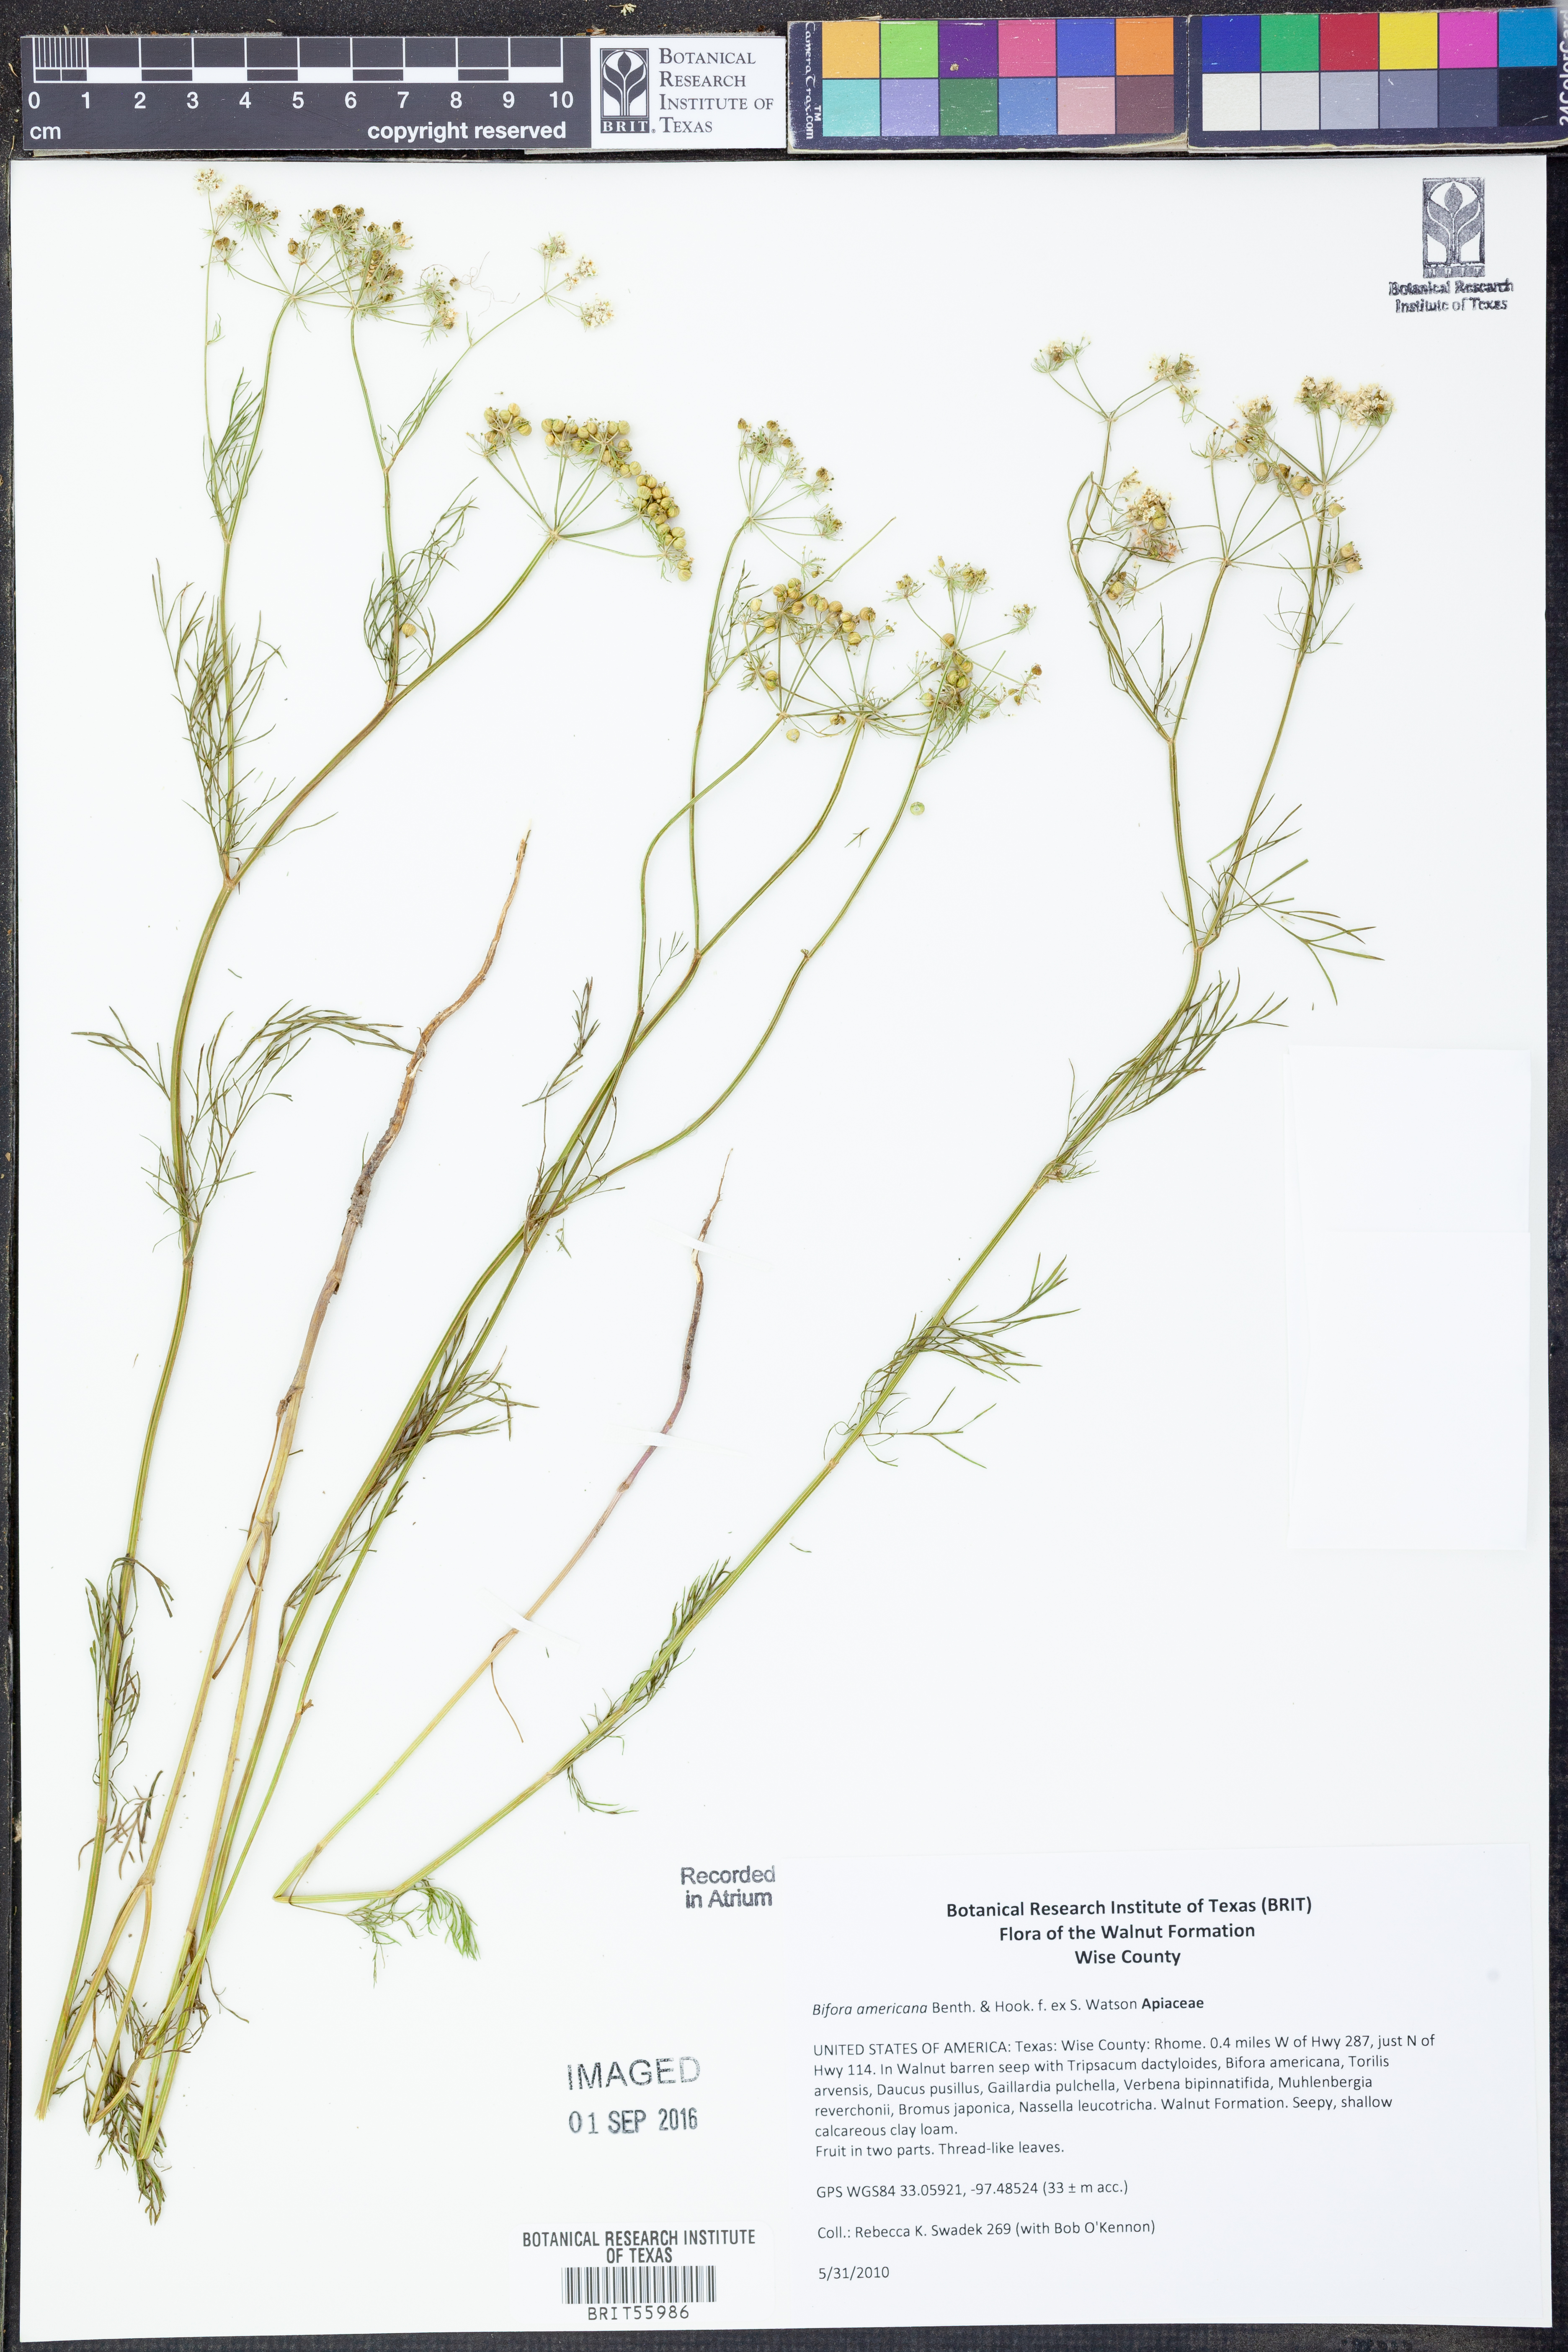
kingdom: Plantae
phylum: Tracheophyta
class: Magnoliopsida
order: Apiales
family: Apiaceae
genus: Atrema
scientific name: Atrema americanum
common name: Prairie-bishop
